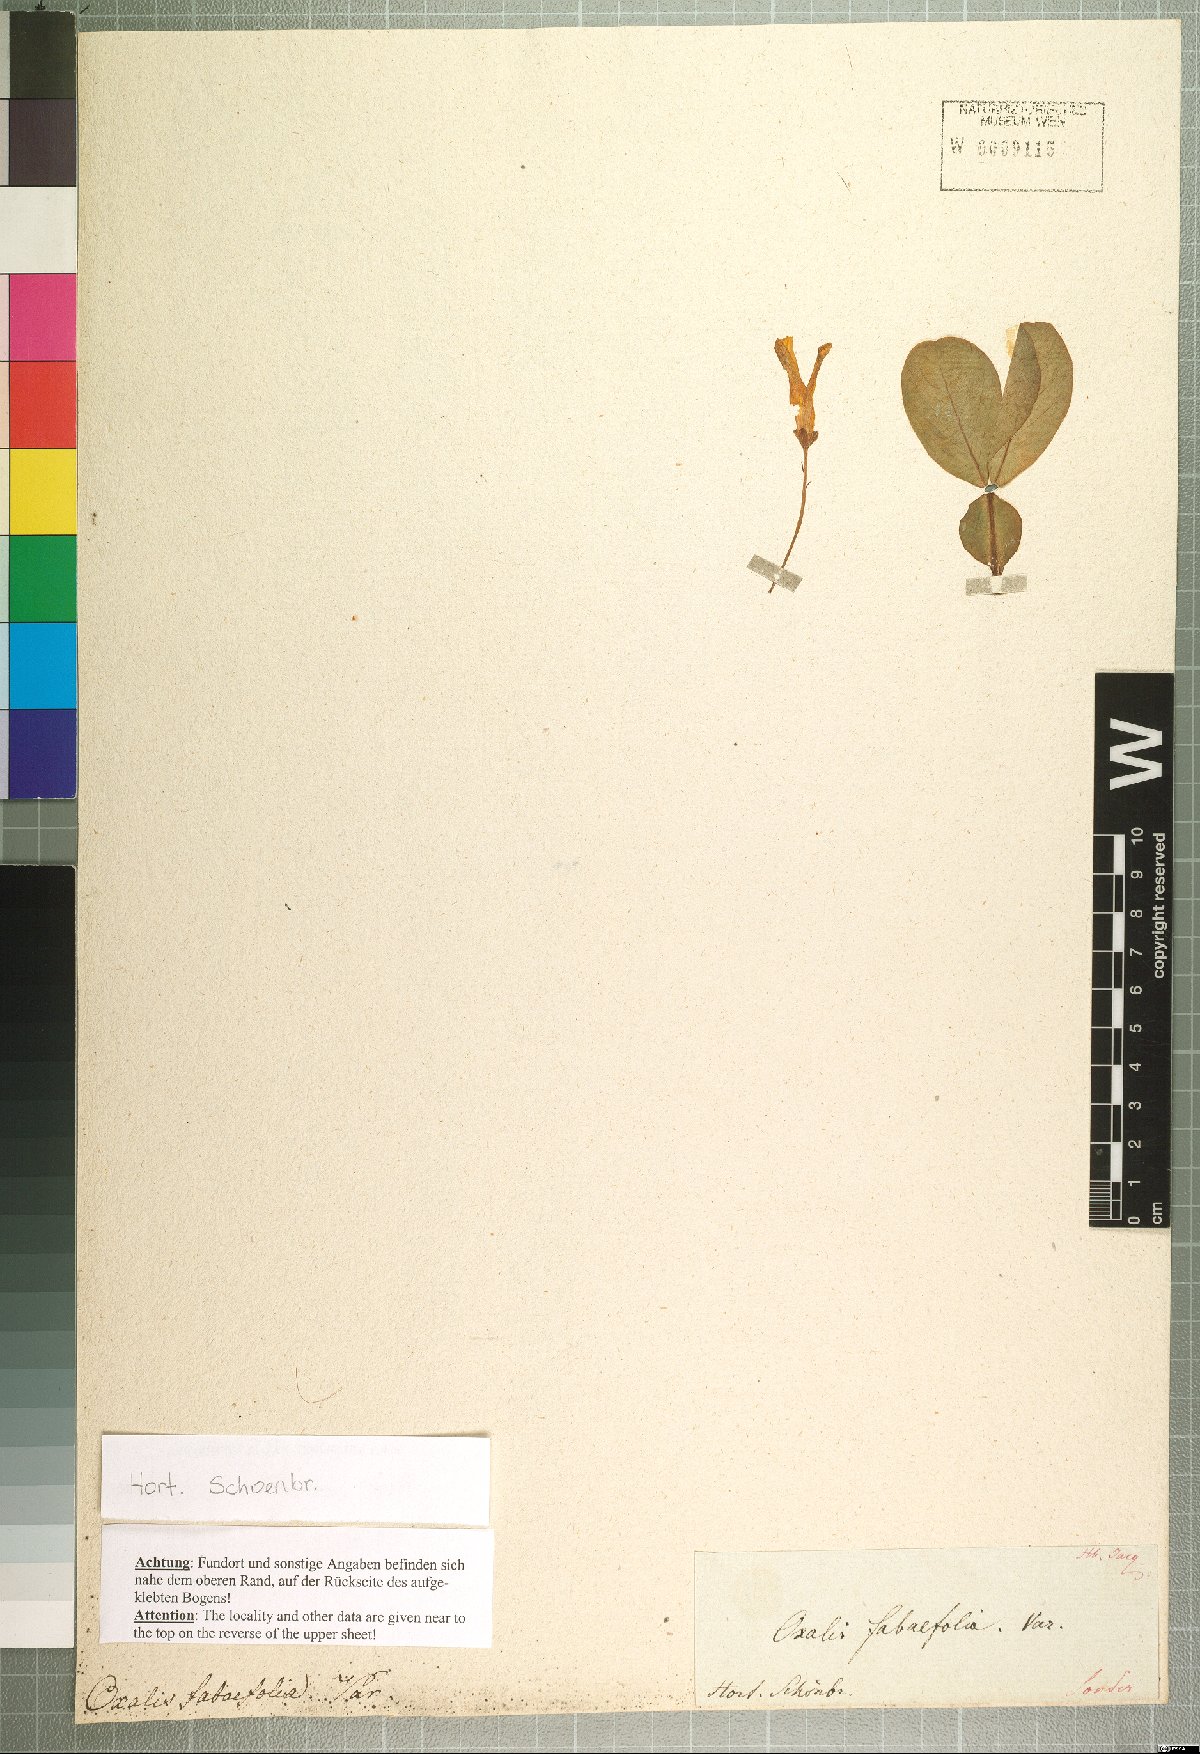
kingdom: Plantae
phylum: Tracheophyta
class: Magnoliopsida
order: Oxalidales
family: Oxalidaceae
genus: Oxalis
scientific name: Oxalis flava
